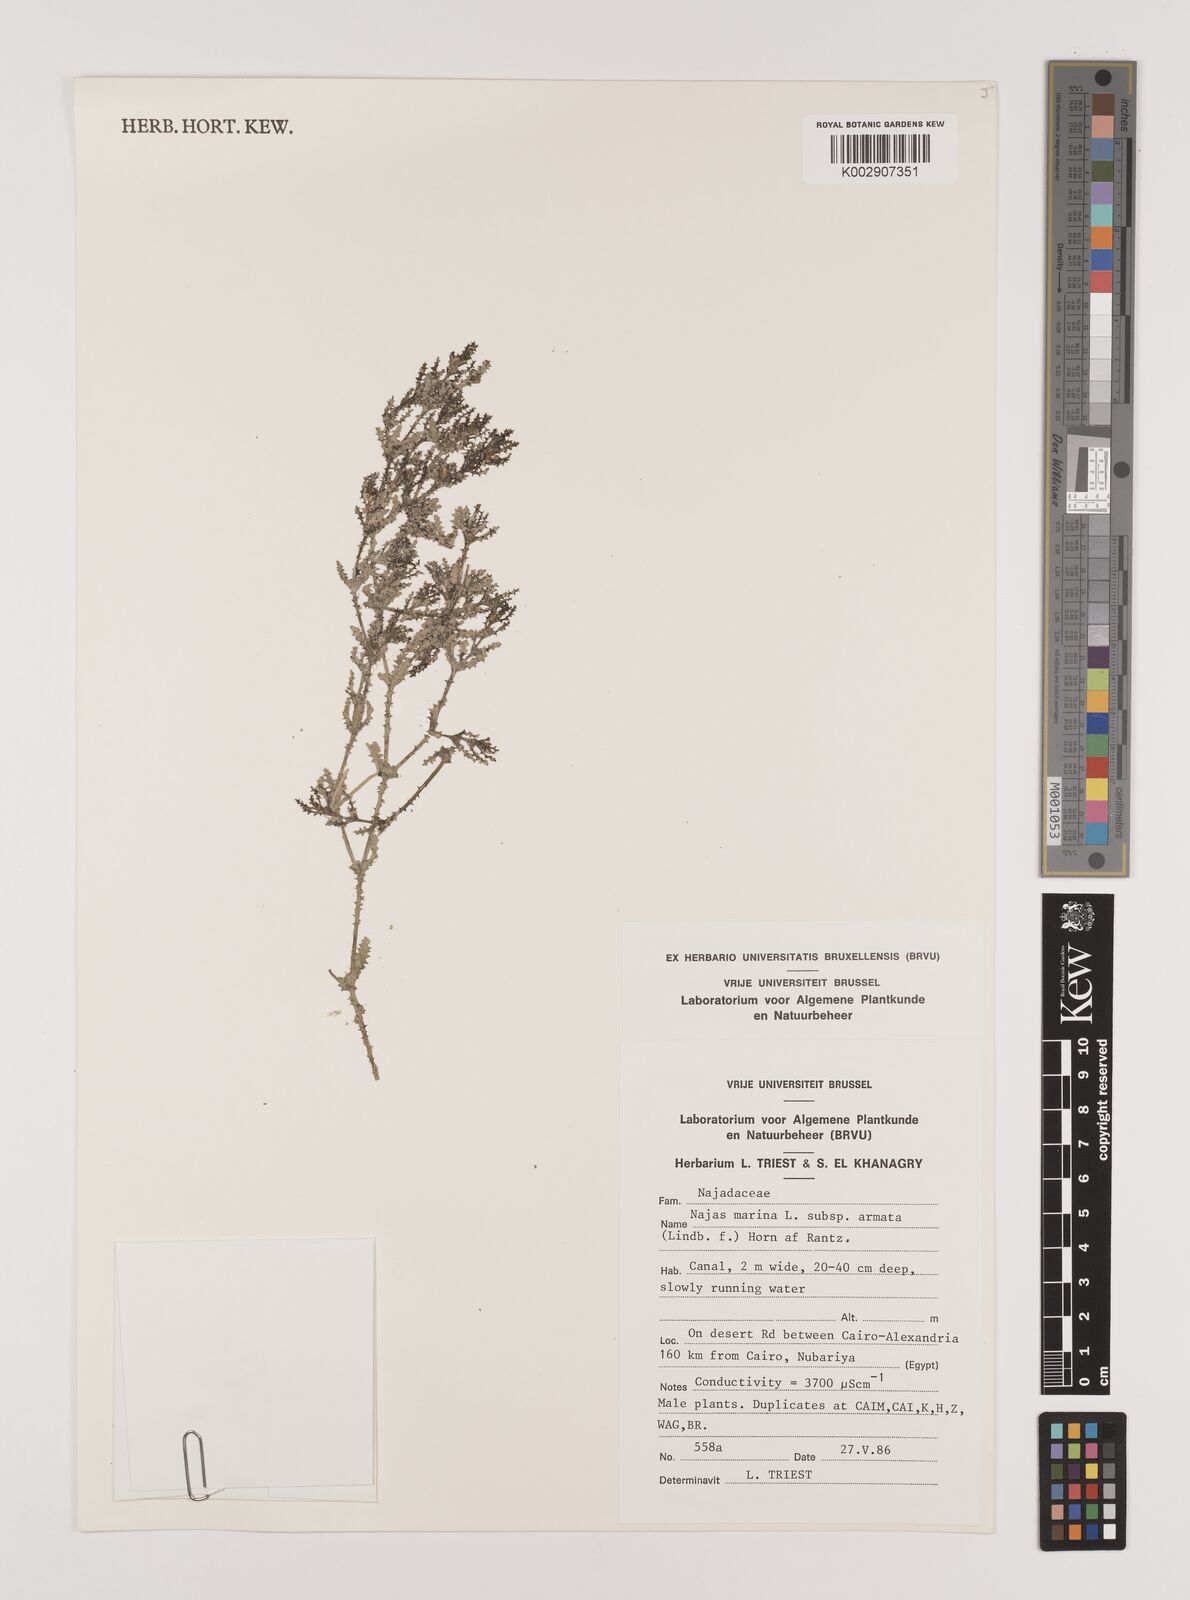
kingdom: Plantae
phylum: Tracheophyta
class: Liliopsida
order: Alismatales
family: Hydrocharitaceae
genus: Najas
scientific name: Najas marina
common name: Holly-leaved naiad
